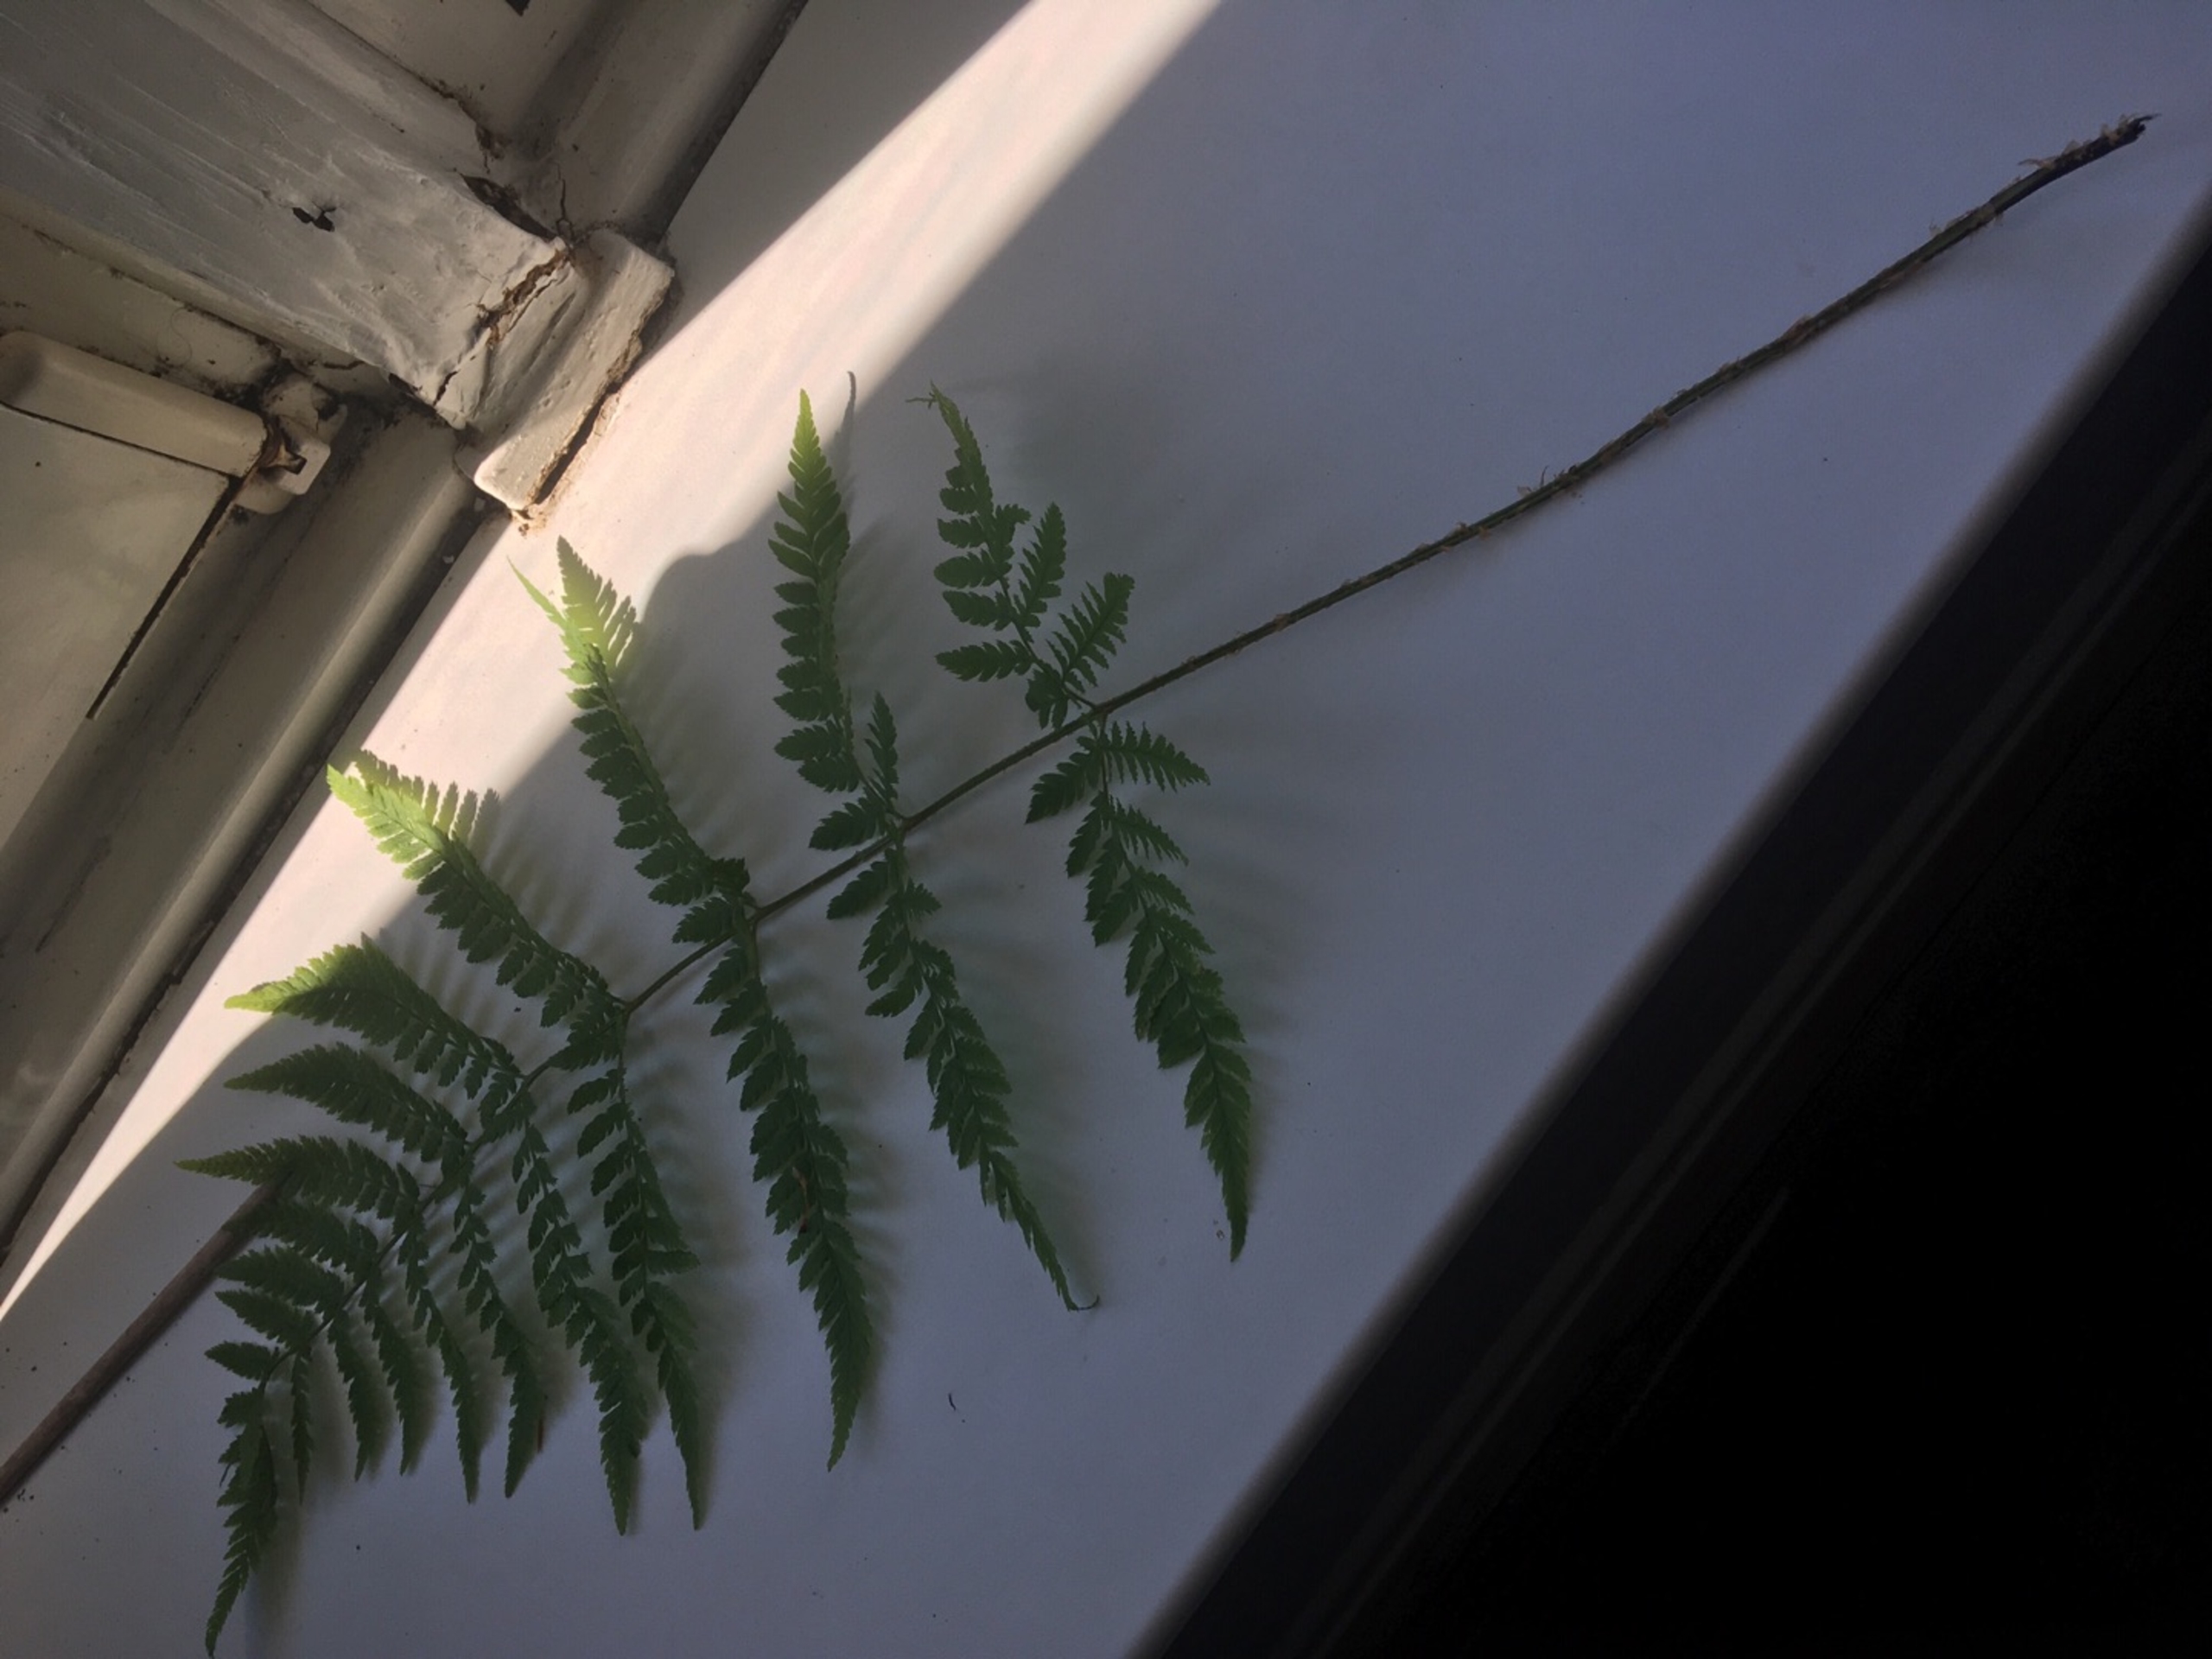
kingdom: Plantae
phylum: Tracheophyta
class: Polypodiopsida
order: Polypodiales
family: Dryopteridaceae
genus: Dryopteris
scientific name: Dryopteris carthusiana
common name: Smalbladet mangeløv
